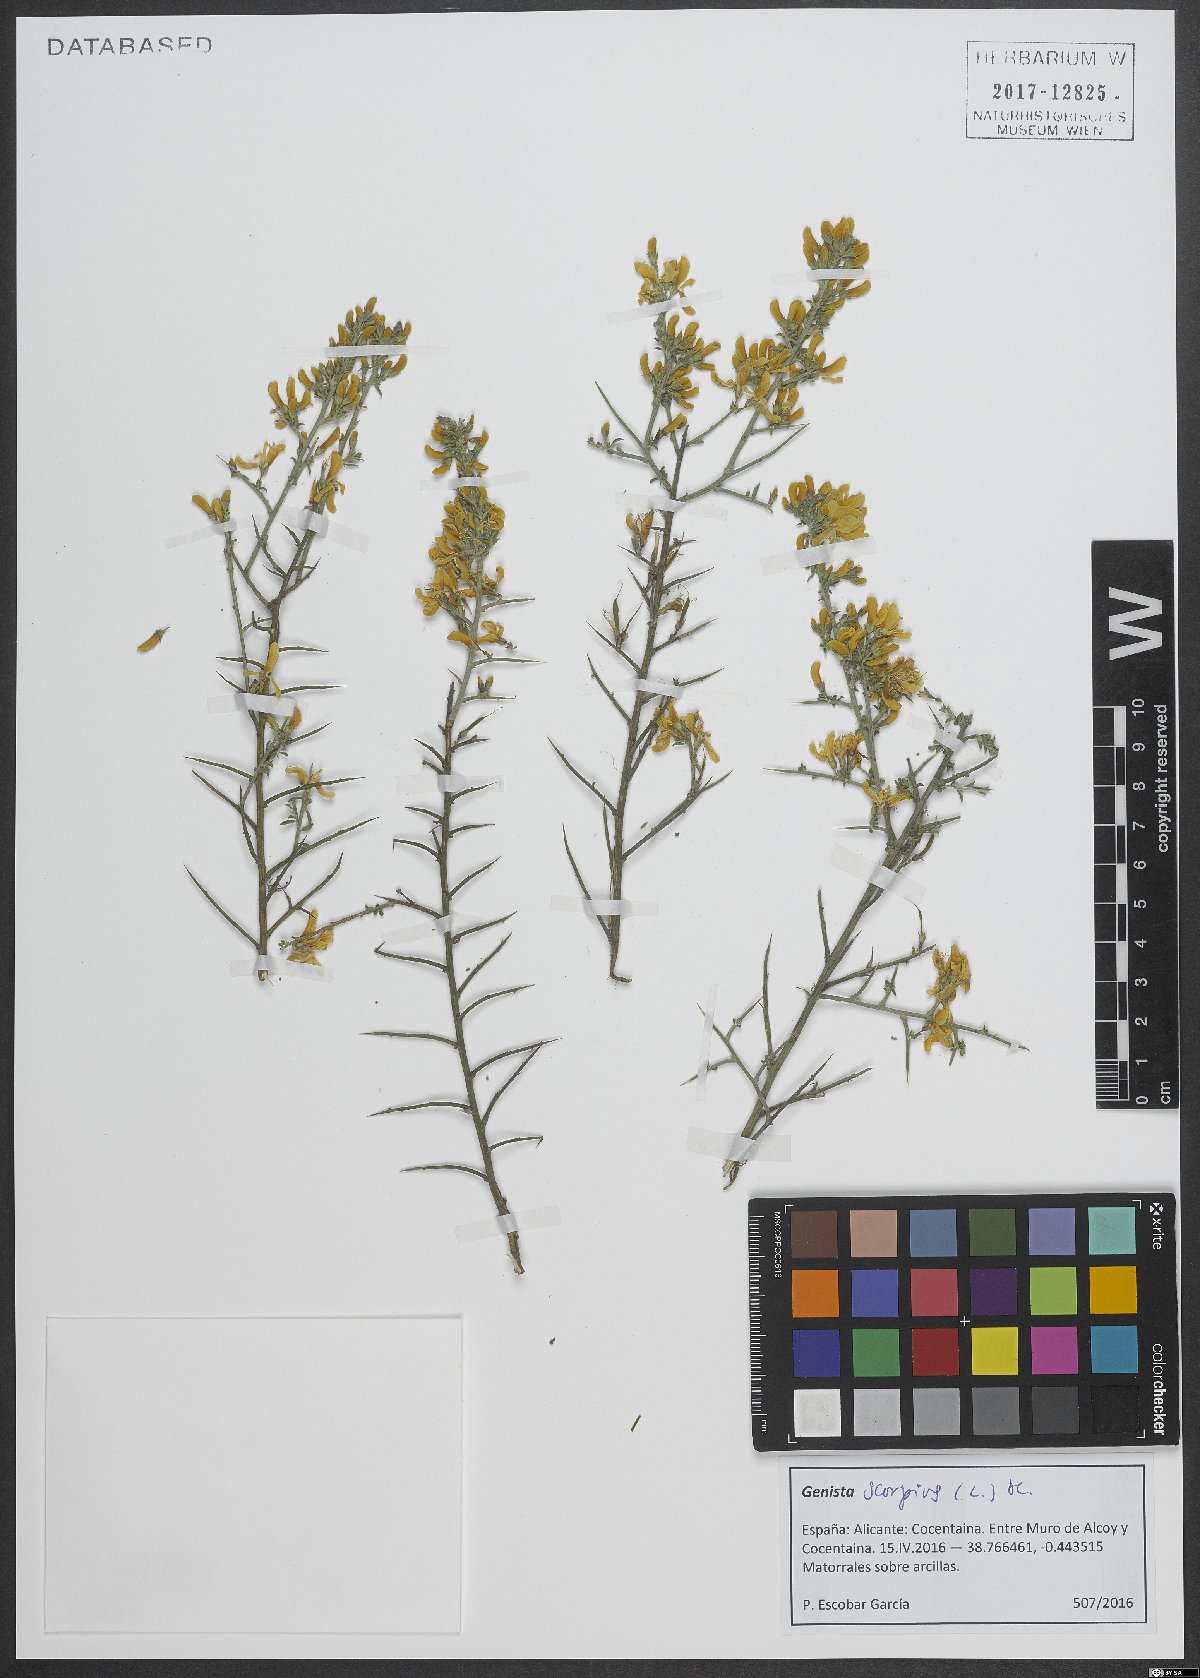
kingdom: Plantae
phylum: Tracheophyta
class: Magnoliopsida
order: Fabales
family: Fabaceae
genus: Genista
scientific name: Genista scorpius
